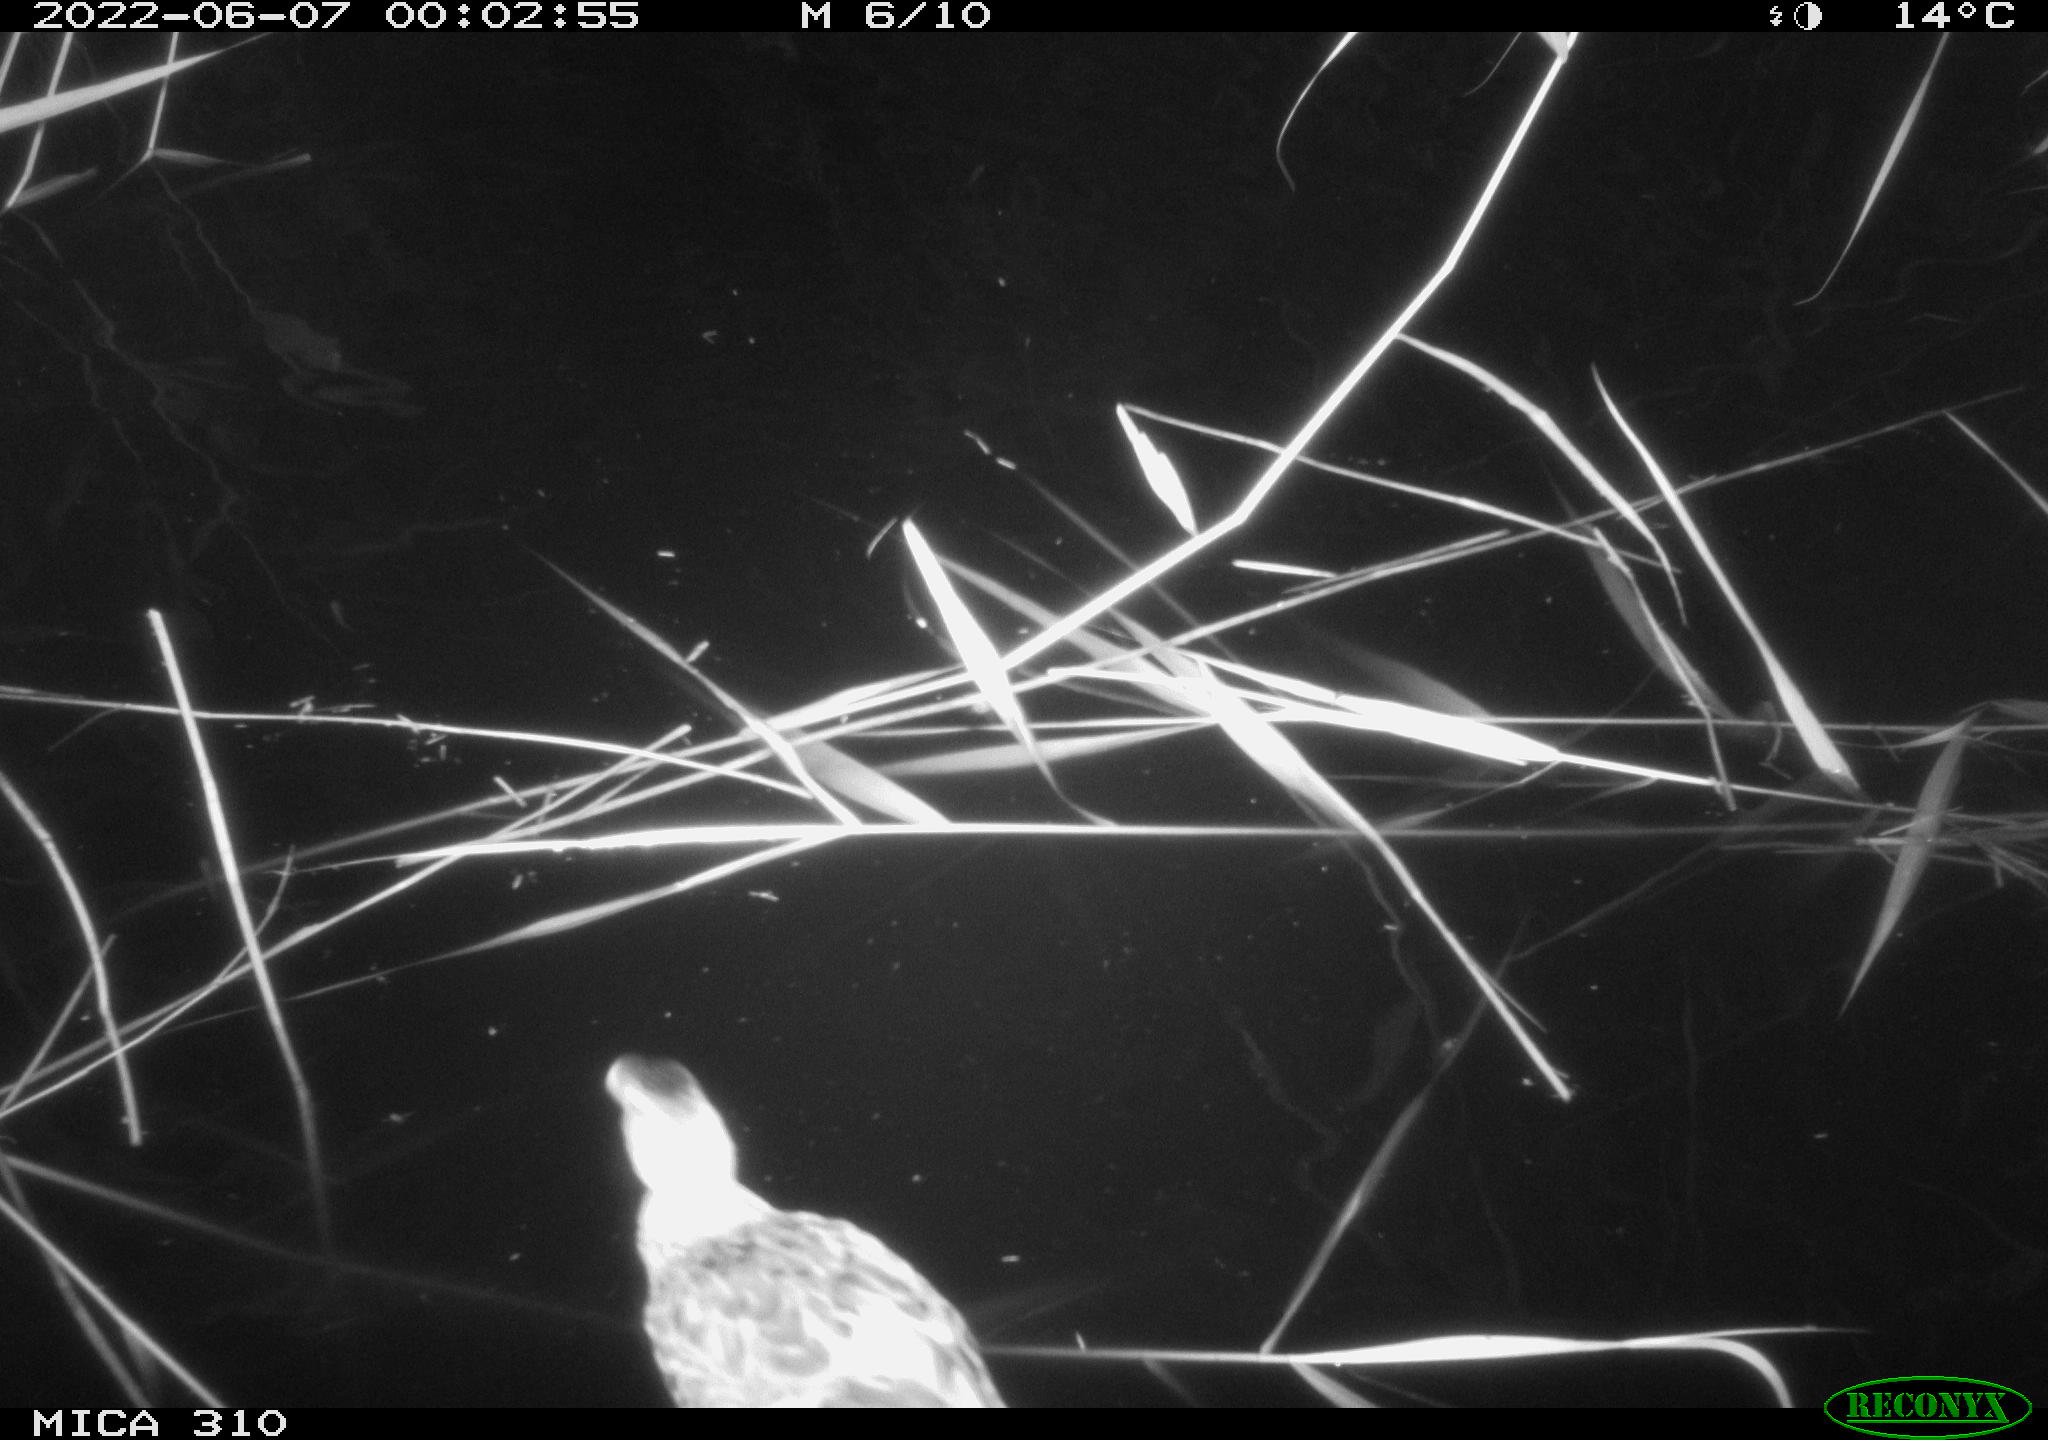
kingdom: Animalia
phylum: Chordata
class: Aves
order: Anseriformes
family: Anatidae
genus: Anas
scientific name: Anas platyrhynchos
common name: Mallard
